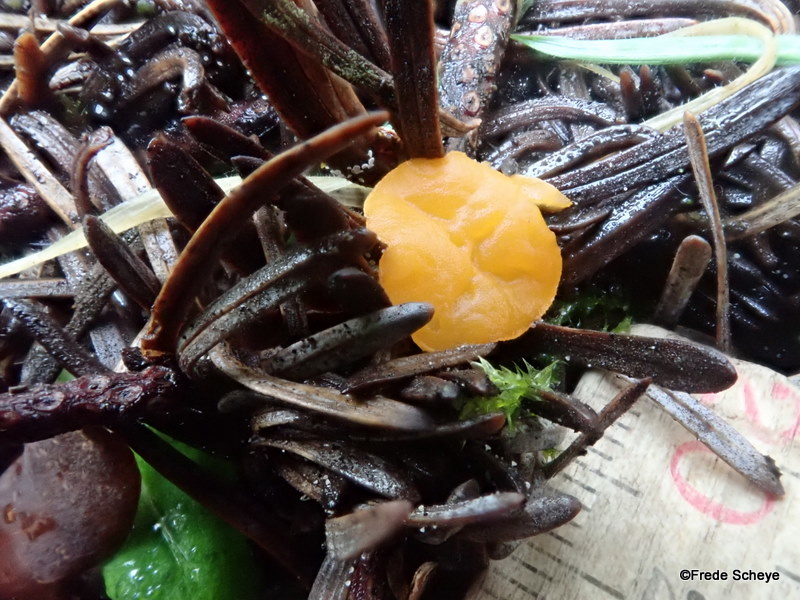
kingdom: Fungi
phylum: Ascomycota
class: Pezizomycetes
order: Pezizales
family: Sarcoscyphaceae
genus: Pithya
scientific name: Pithya vulgaris
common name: stor dukatbæger
